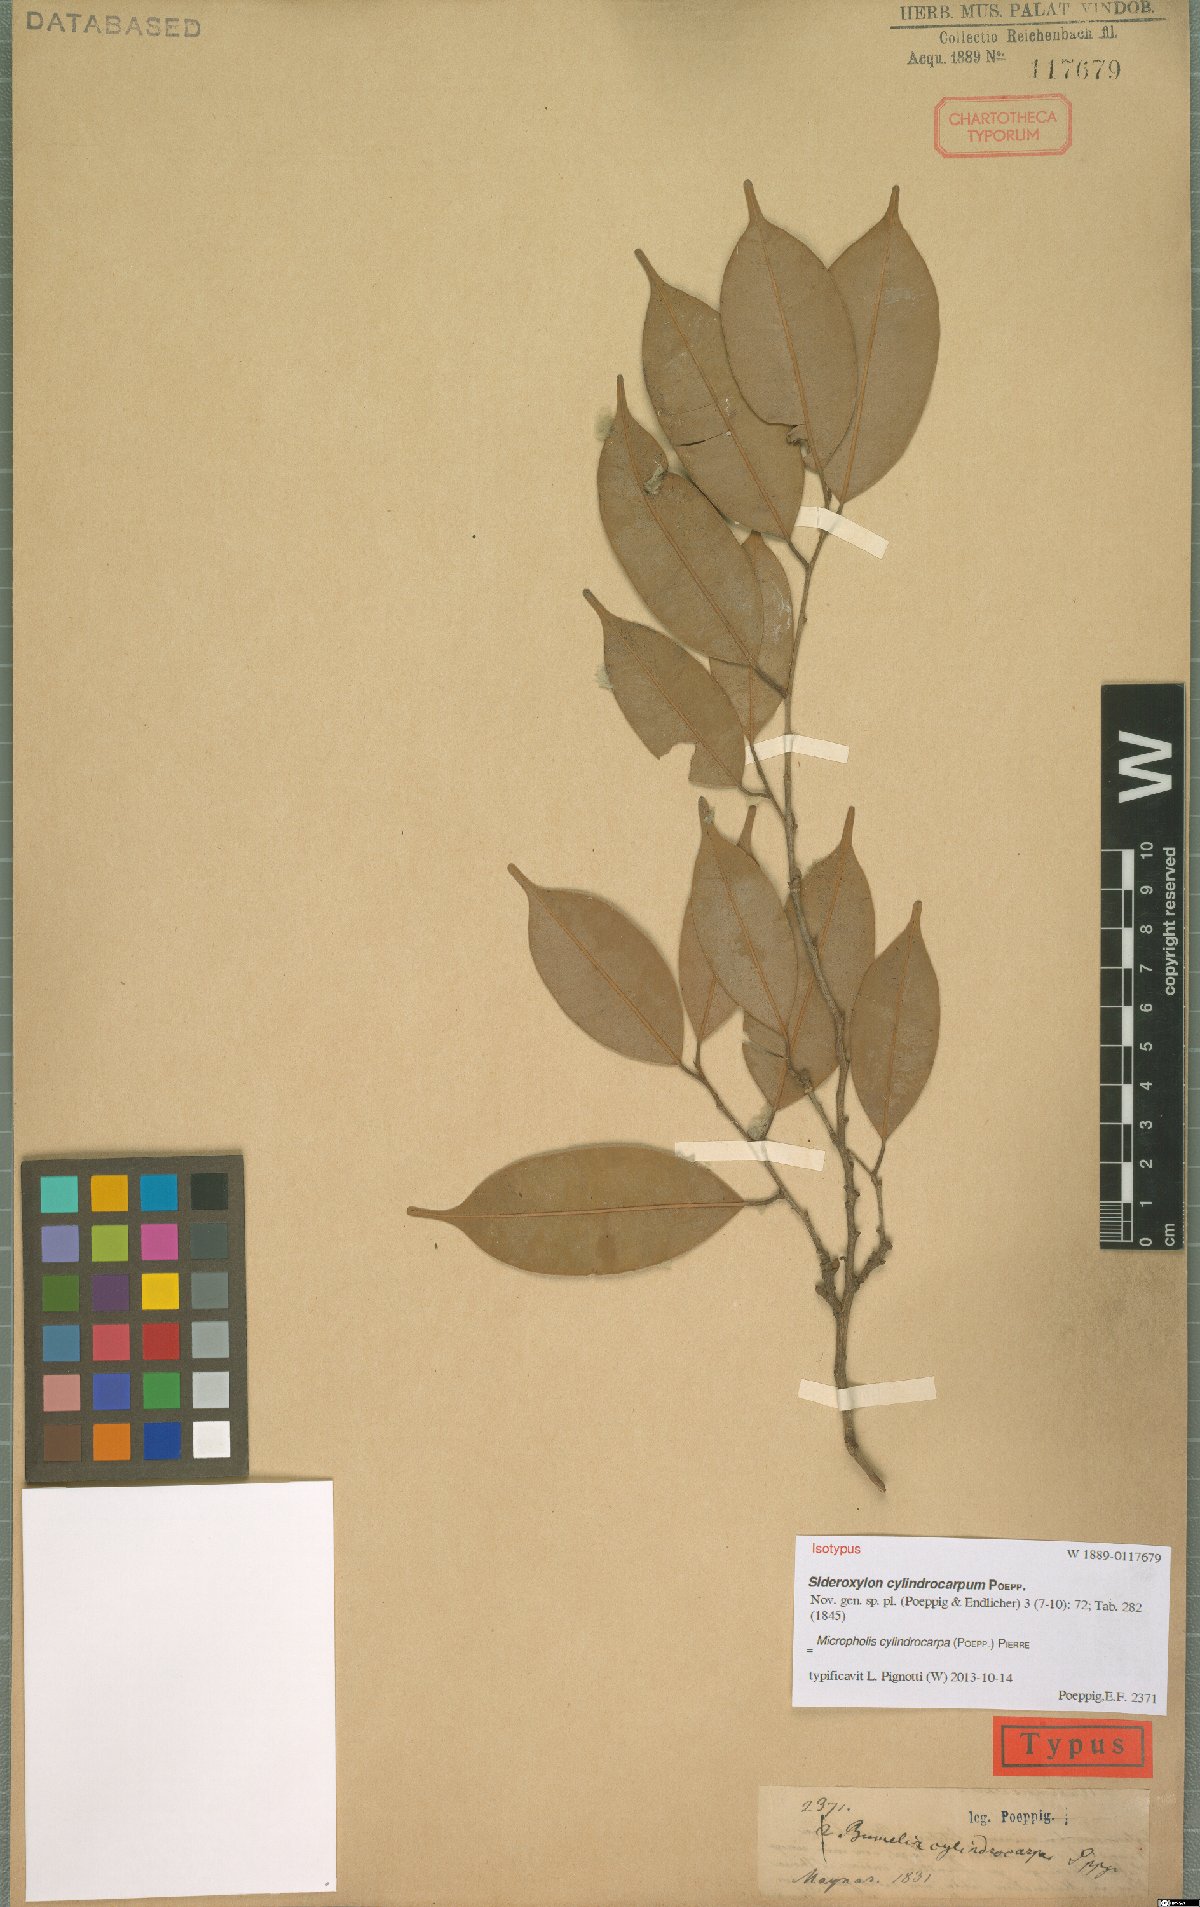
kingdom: Plantae
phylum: Tracheophyta
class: Magnoliopsida
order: Ericales
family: Sapotaceae
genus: Micropholis
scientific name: Micropholis cylindrocarpa
